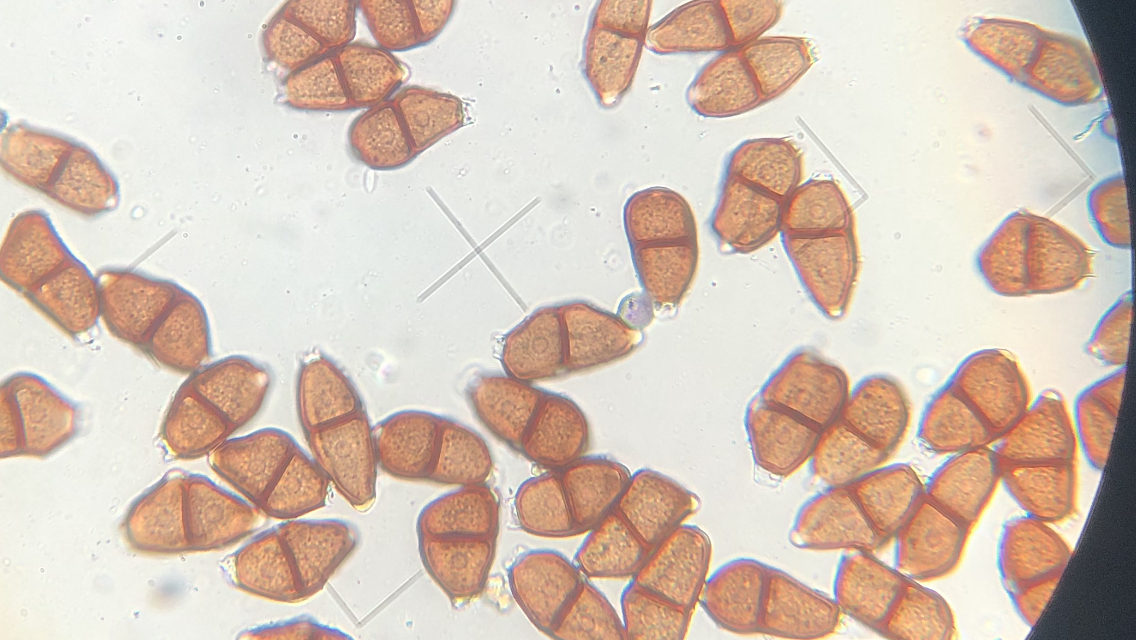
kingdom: Fungi
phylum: Basidiomycota
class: Pucciniomycetes
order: Pucciniales
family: Pucciniaceae
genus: Puccinia
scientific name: Puccinia
